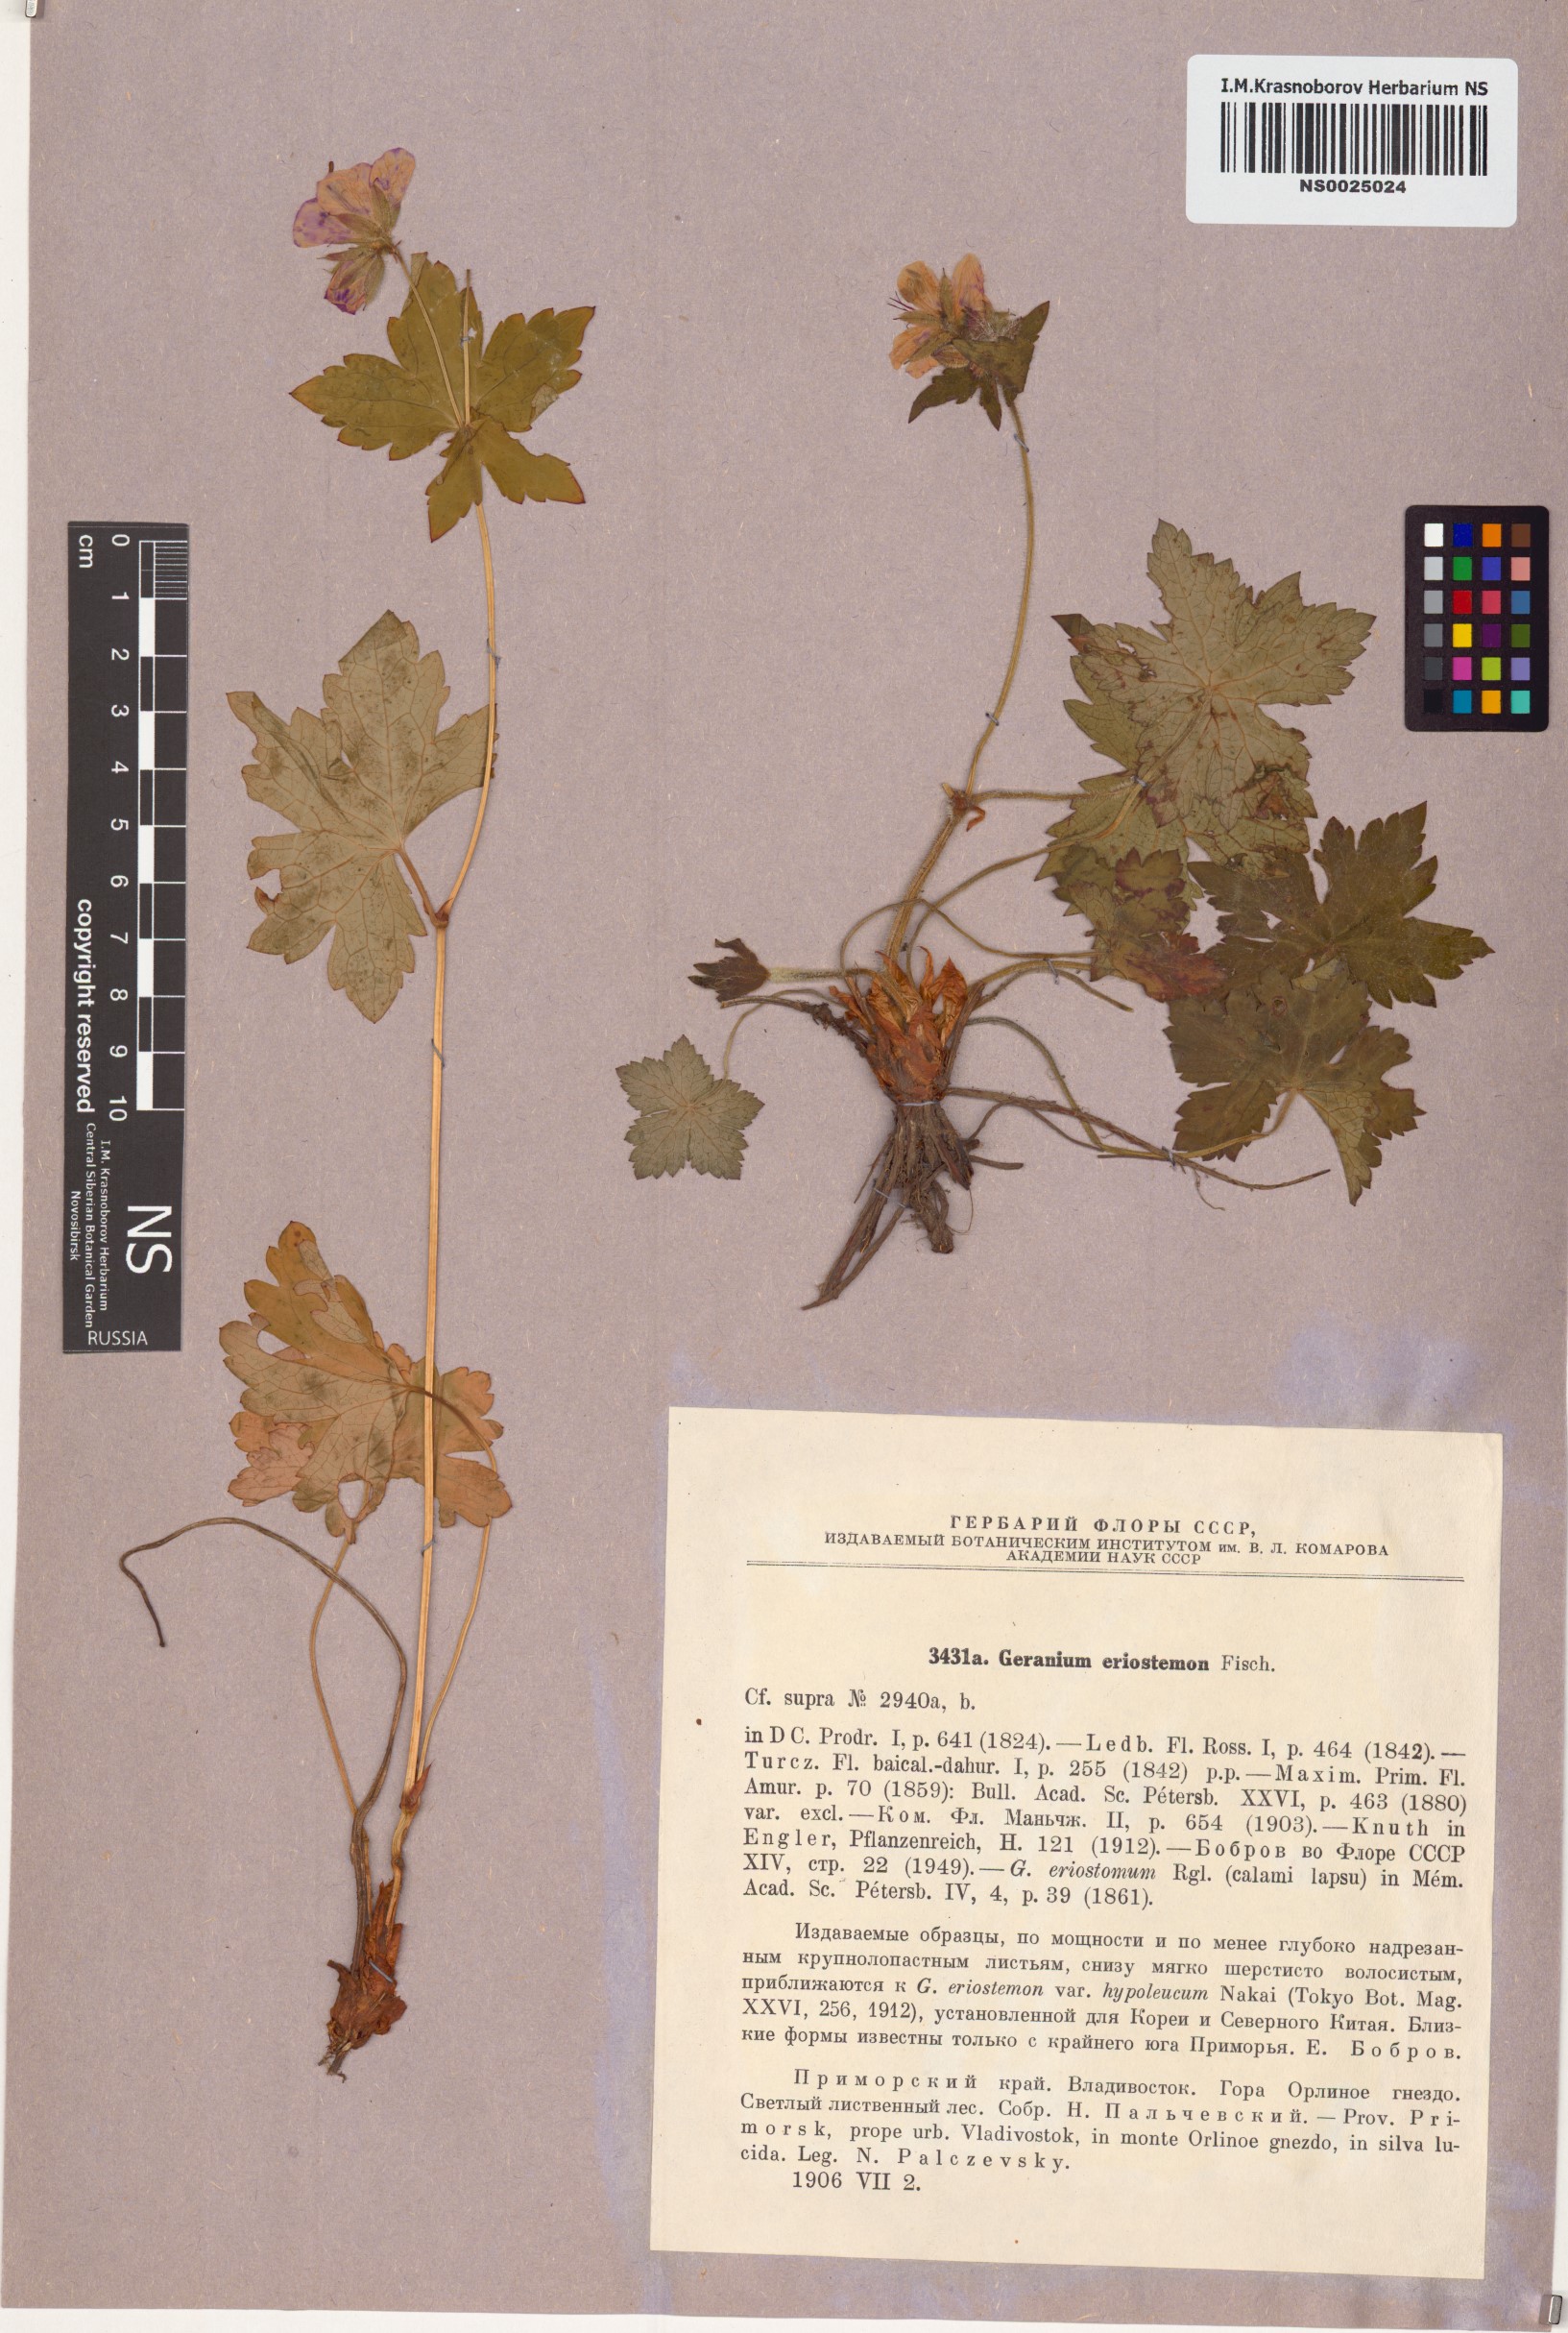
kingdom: Plantae
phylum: Tracheophyta
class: Magnoliopsida
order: Geraniales
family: Geraniaceae
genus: Geranium
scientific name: Geranium platyanthum
